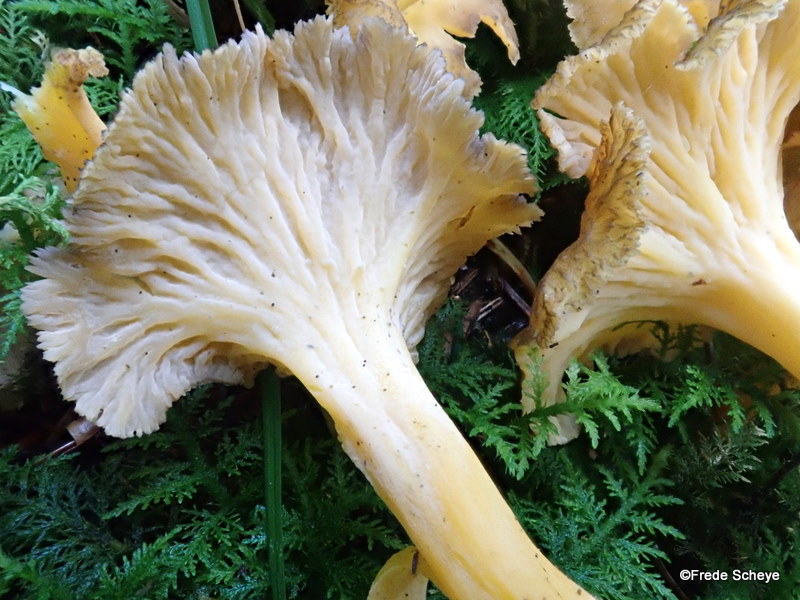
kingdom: Fungi
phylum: Basidiomycota
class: Agaricomycetes
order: Cantharellales
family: Hydnaceae
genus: Craterellus
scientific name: Craterellus lutescens
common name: gylden kantarel
